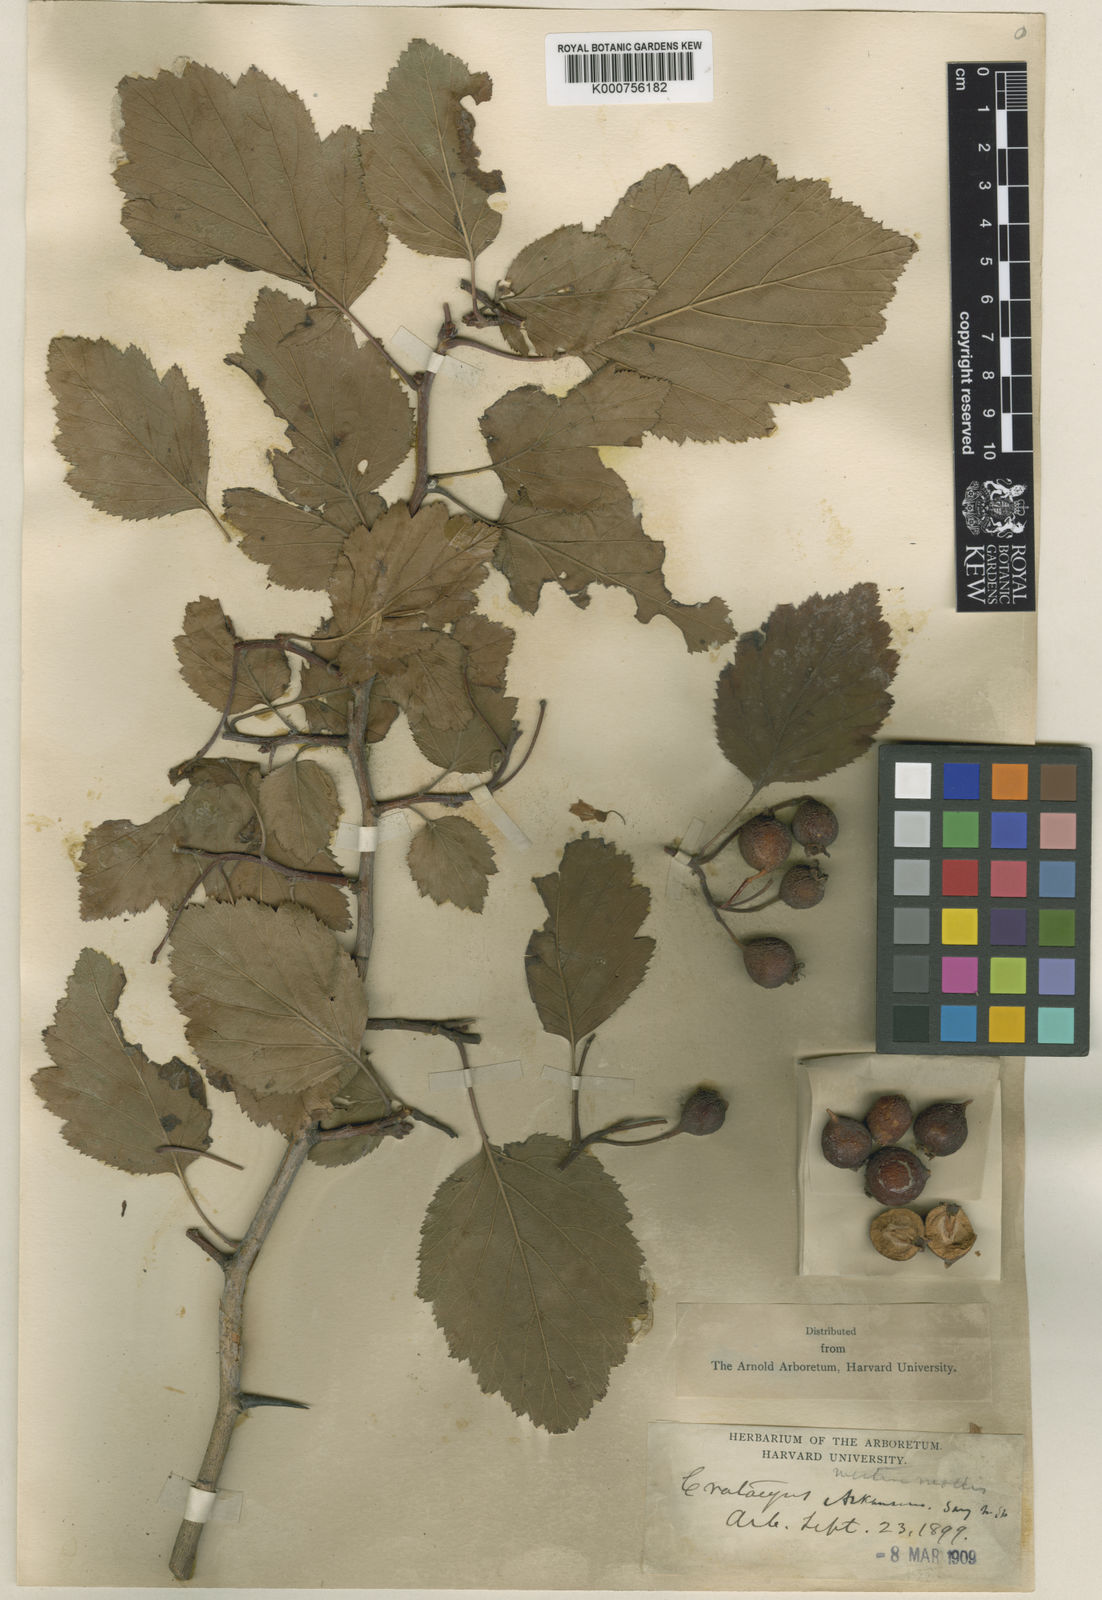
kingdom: Plantae
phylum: Tracheophyta
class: Magnoliopsida
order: Rosales
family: Rosaceae
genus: Crataegus
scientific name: Crataegus mollis
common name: Downy hawthorn
